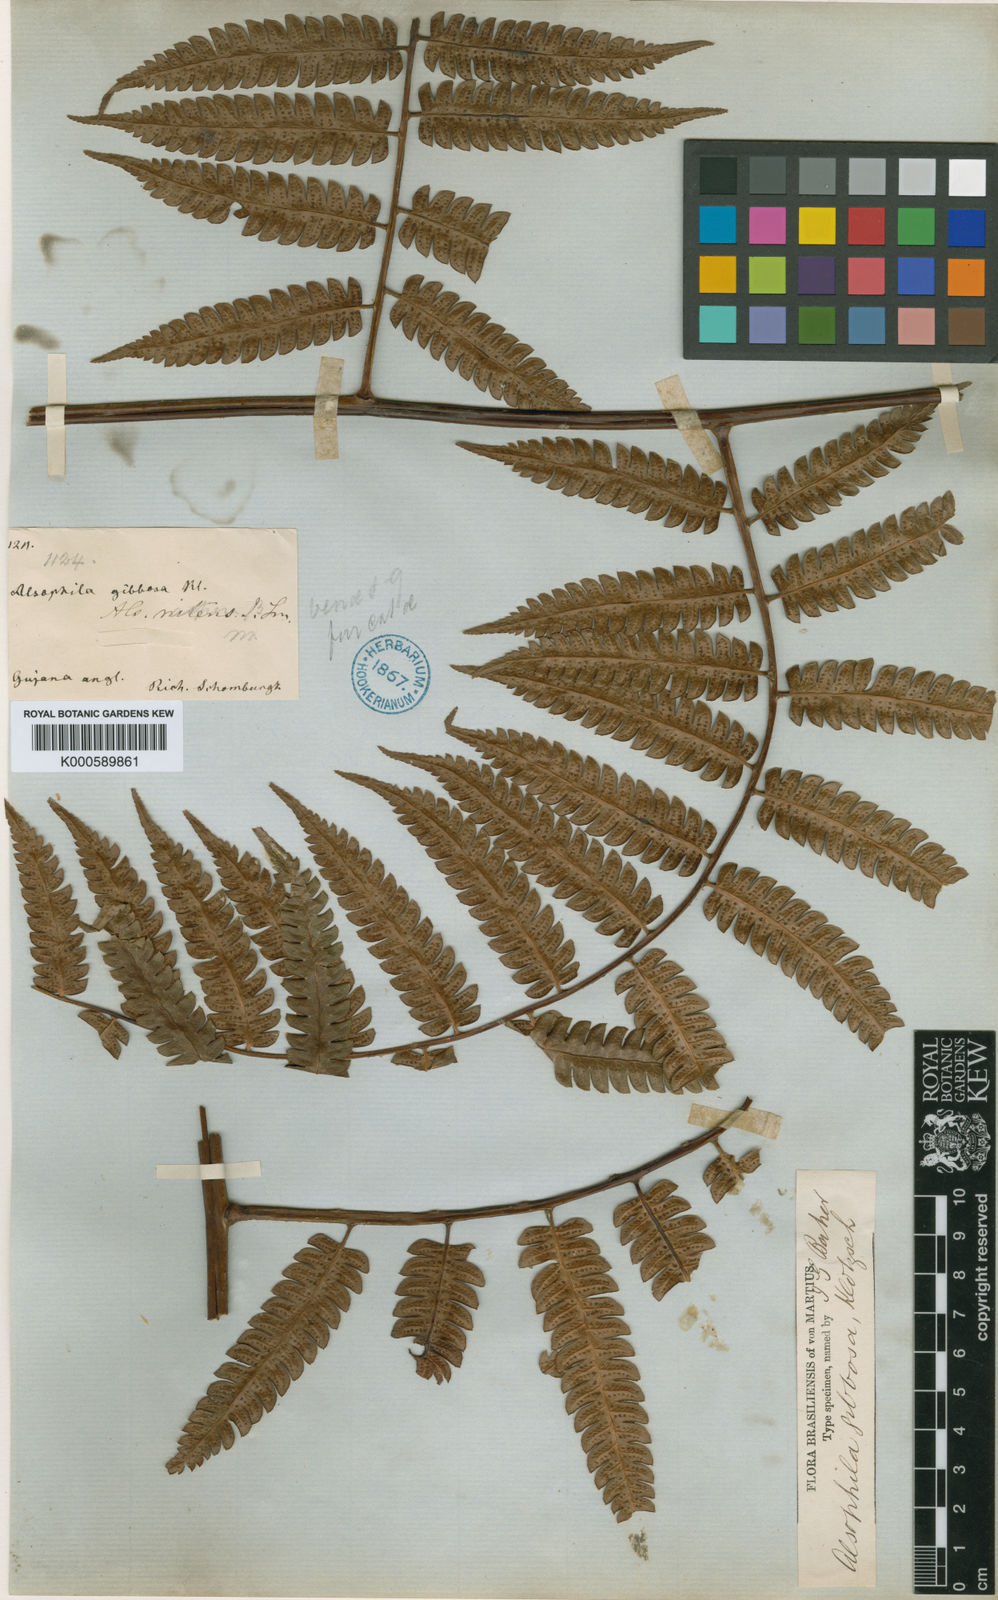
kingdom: Plantae
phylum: Tracheophyta
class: Polypodiopsida
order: Cyatheales
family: Cyatheaceae
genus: Cyathea
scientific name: Cyathea gibbosa
